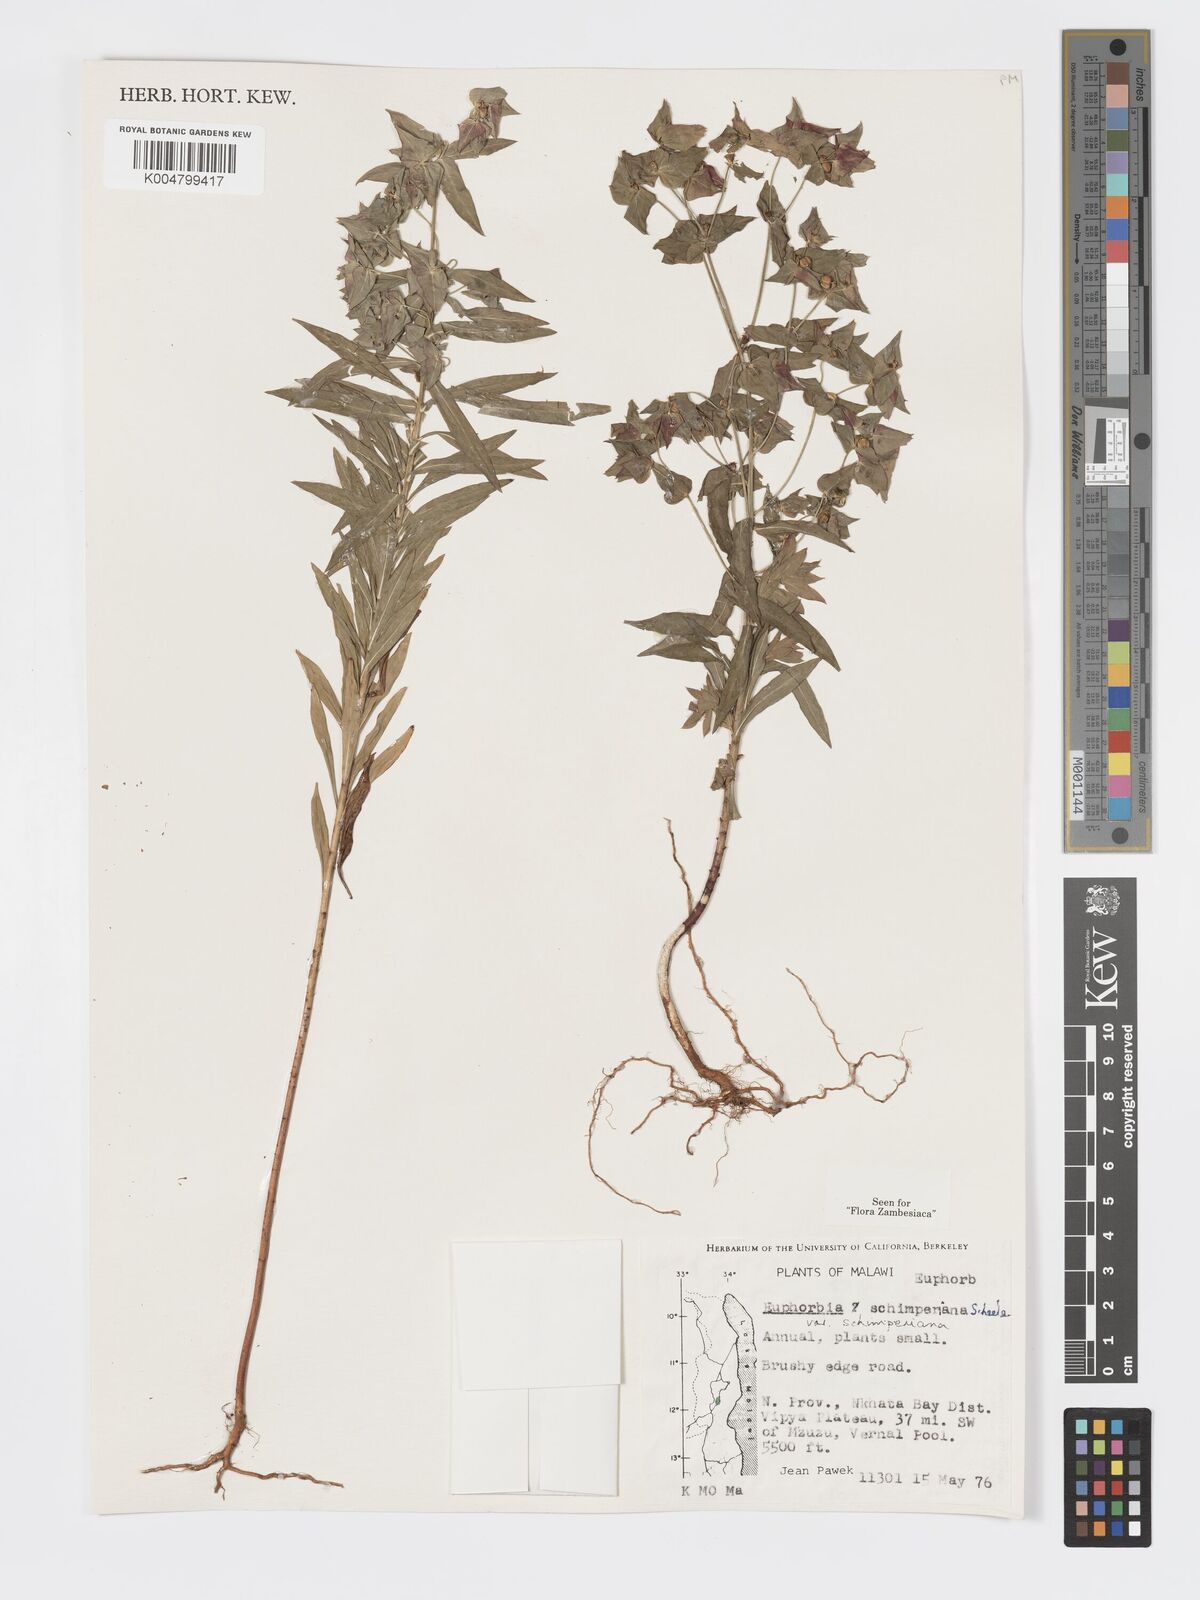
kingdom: Plantae
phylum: Tracheophyta
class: Magnoliopsida
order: Malpighiales
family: Euphorbiaceae
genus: Euphorbia
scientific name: Euphorbia schimperiana
